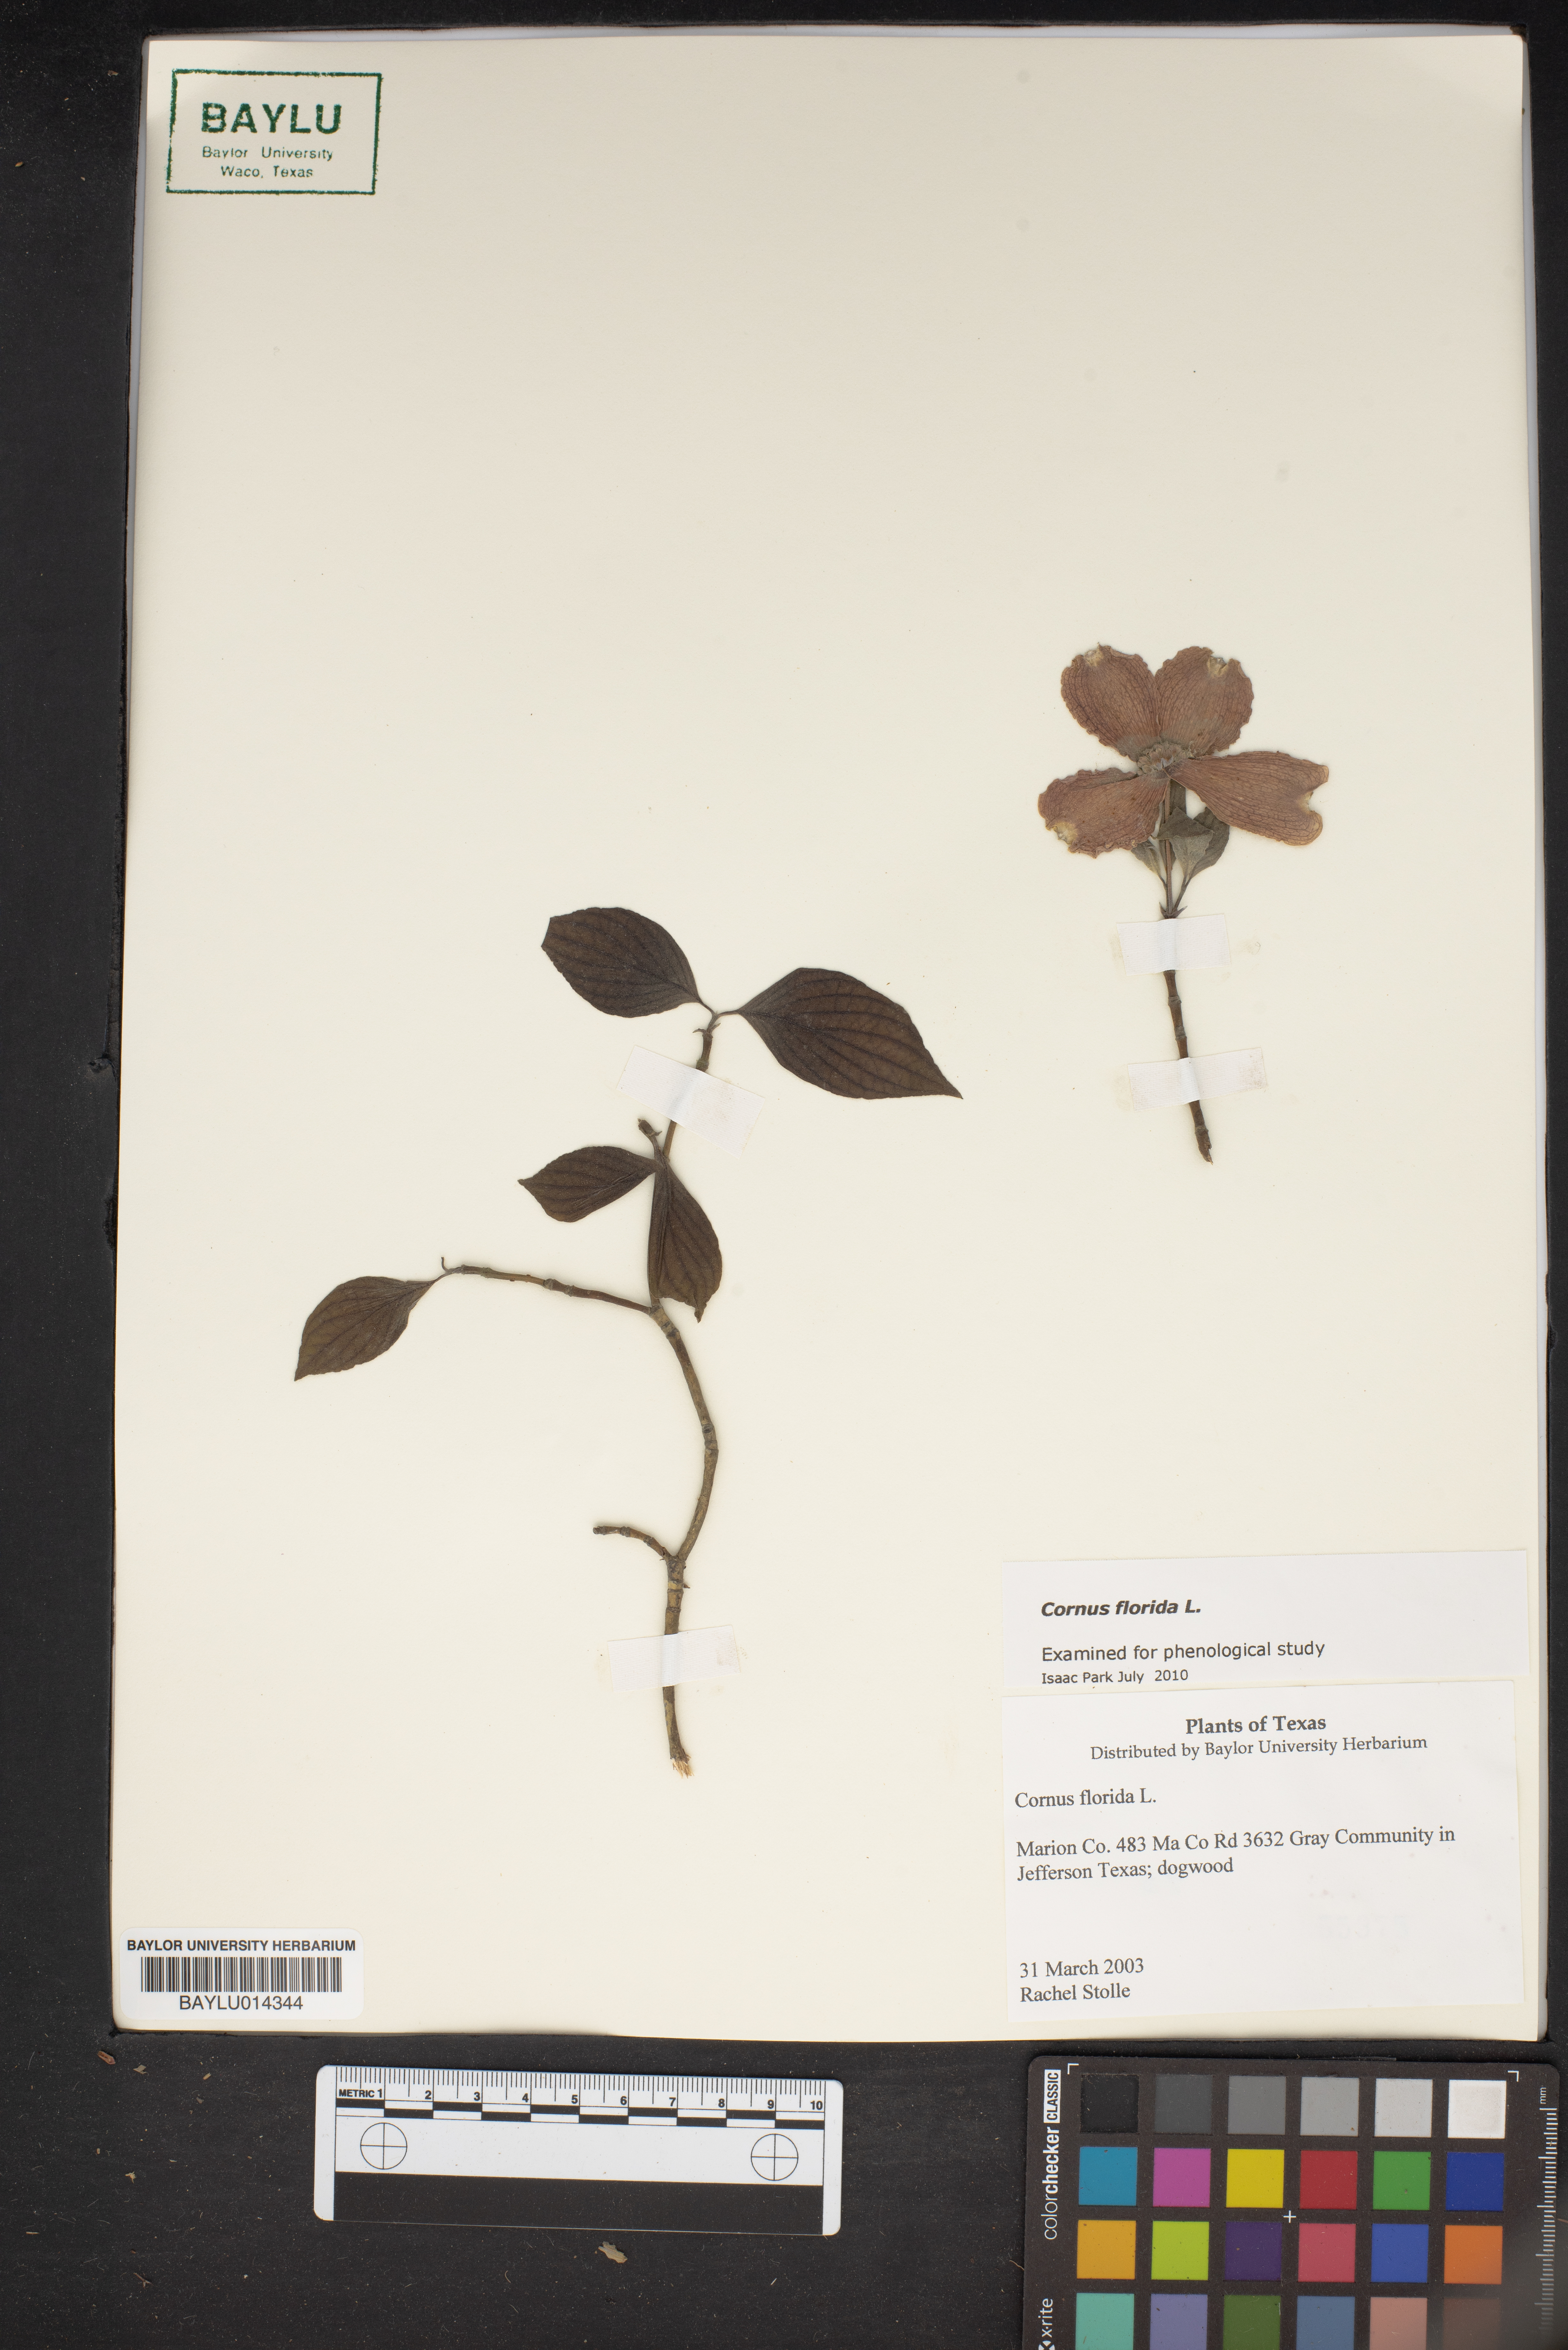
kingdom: Plantae
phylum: Tracheophyta
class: Magnoliopsida
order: Cornales
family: Cornaceae
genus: Cornus
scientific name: Cornus florida
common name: Flowering dogwood
